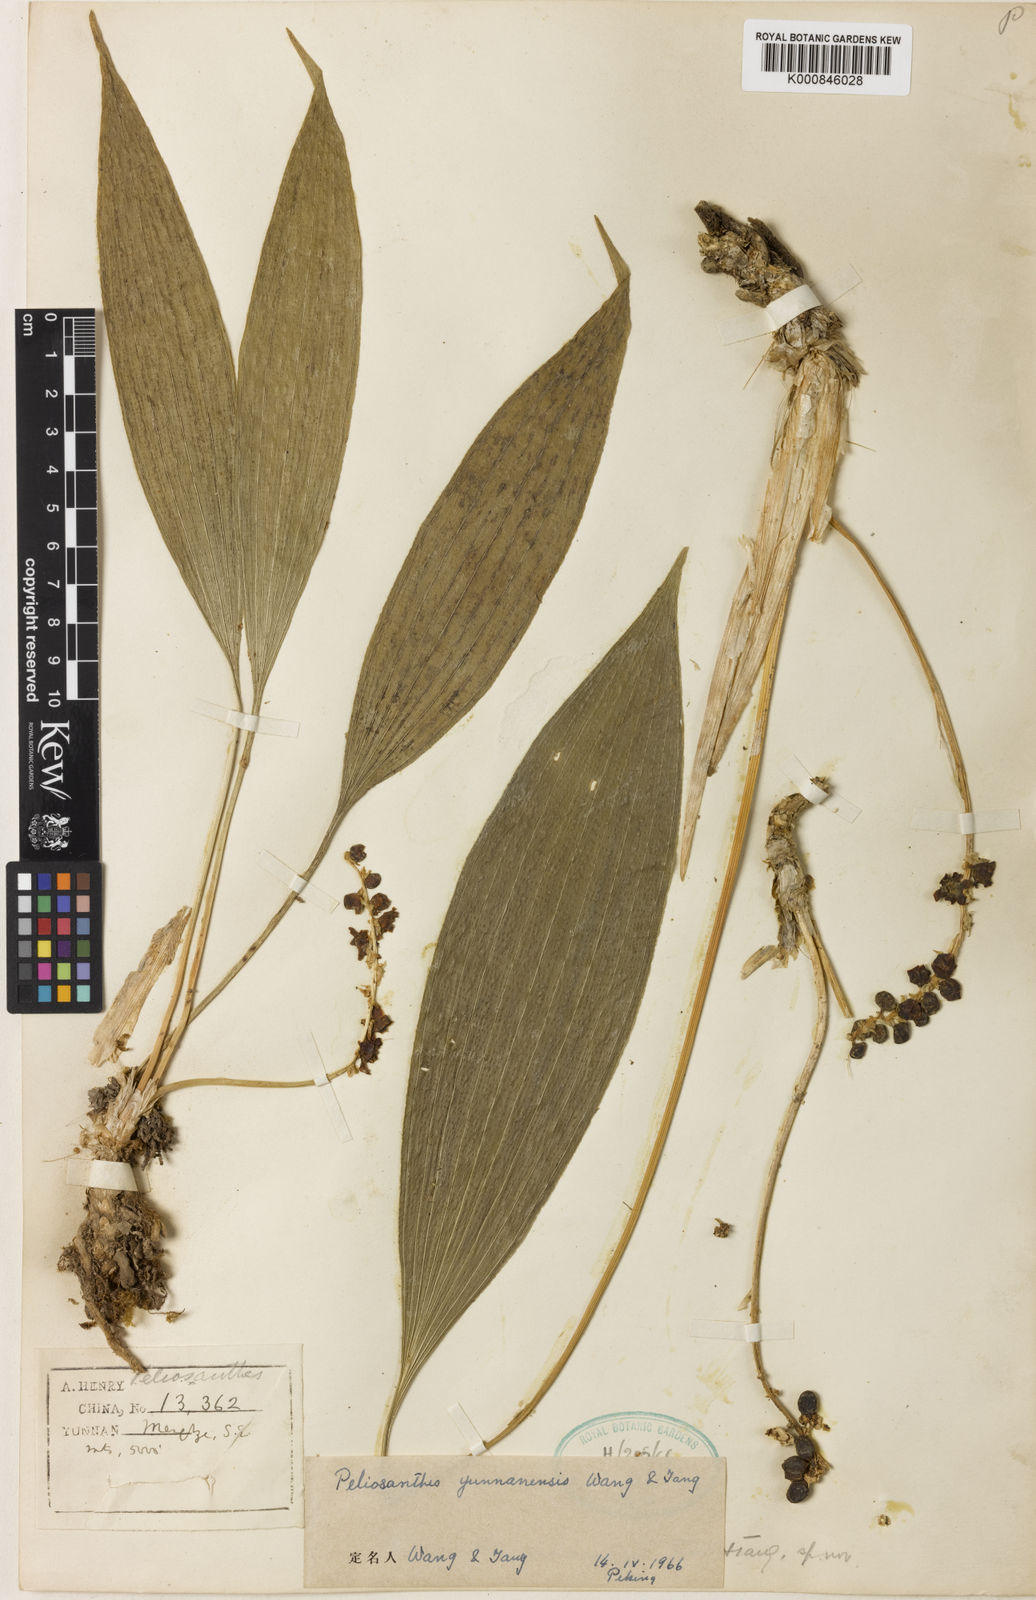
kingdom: Plantae
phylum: Tracheophyta
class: Liliopsida
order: Asparagales
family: Asparagaceae
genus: Peliosanthes
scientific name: Peliosanthes teta
